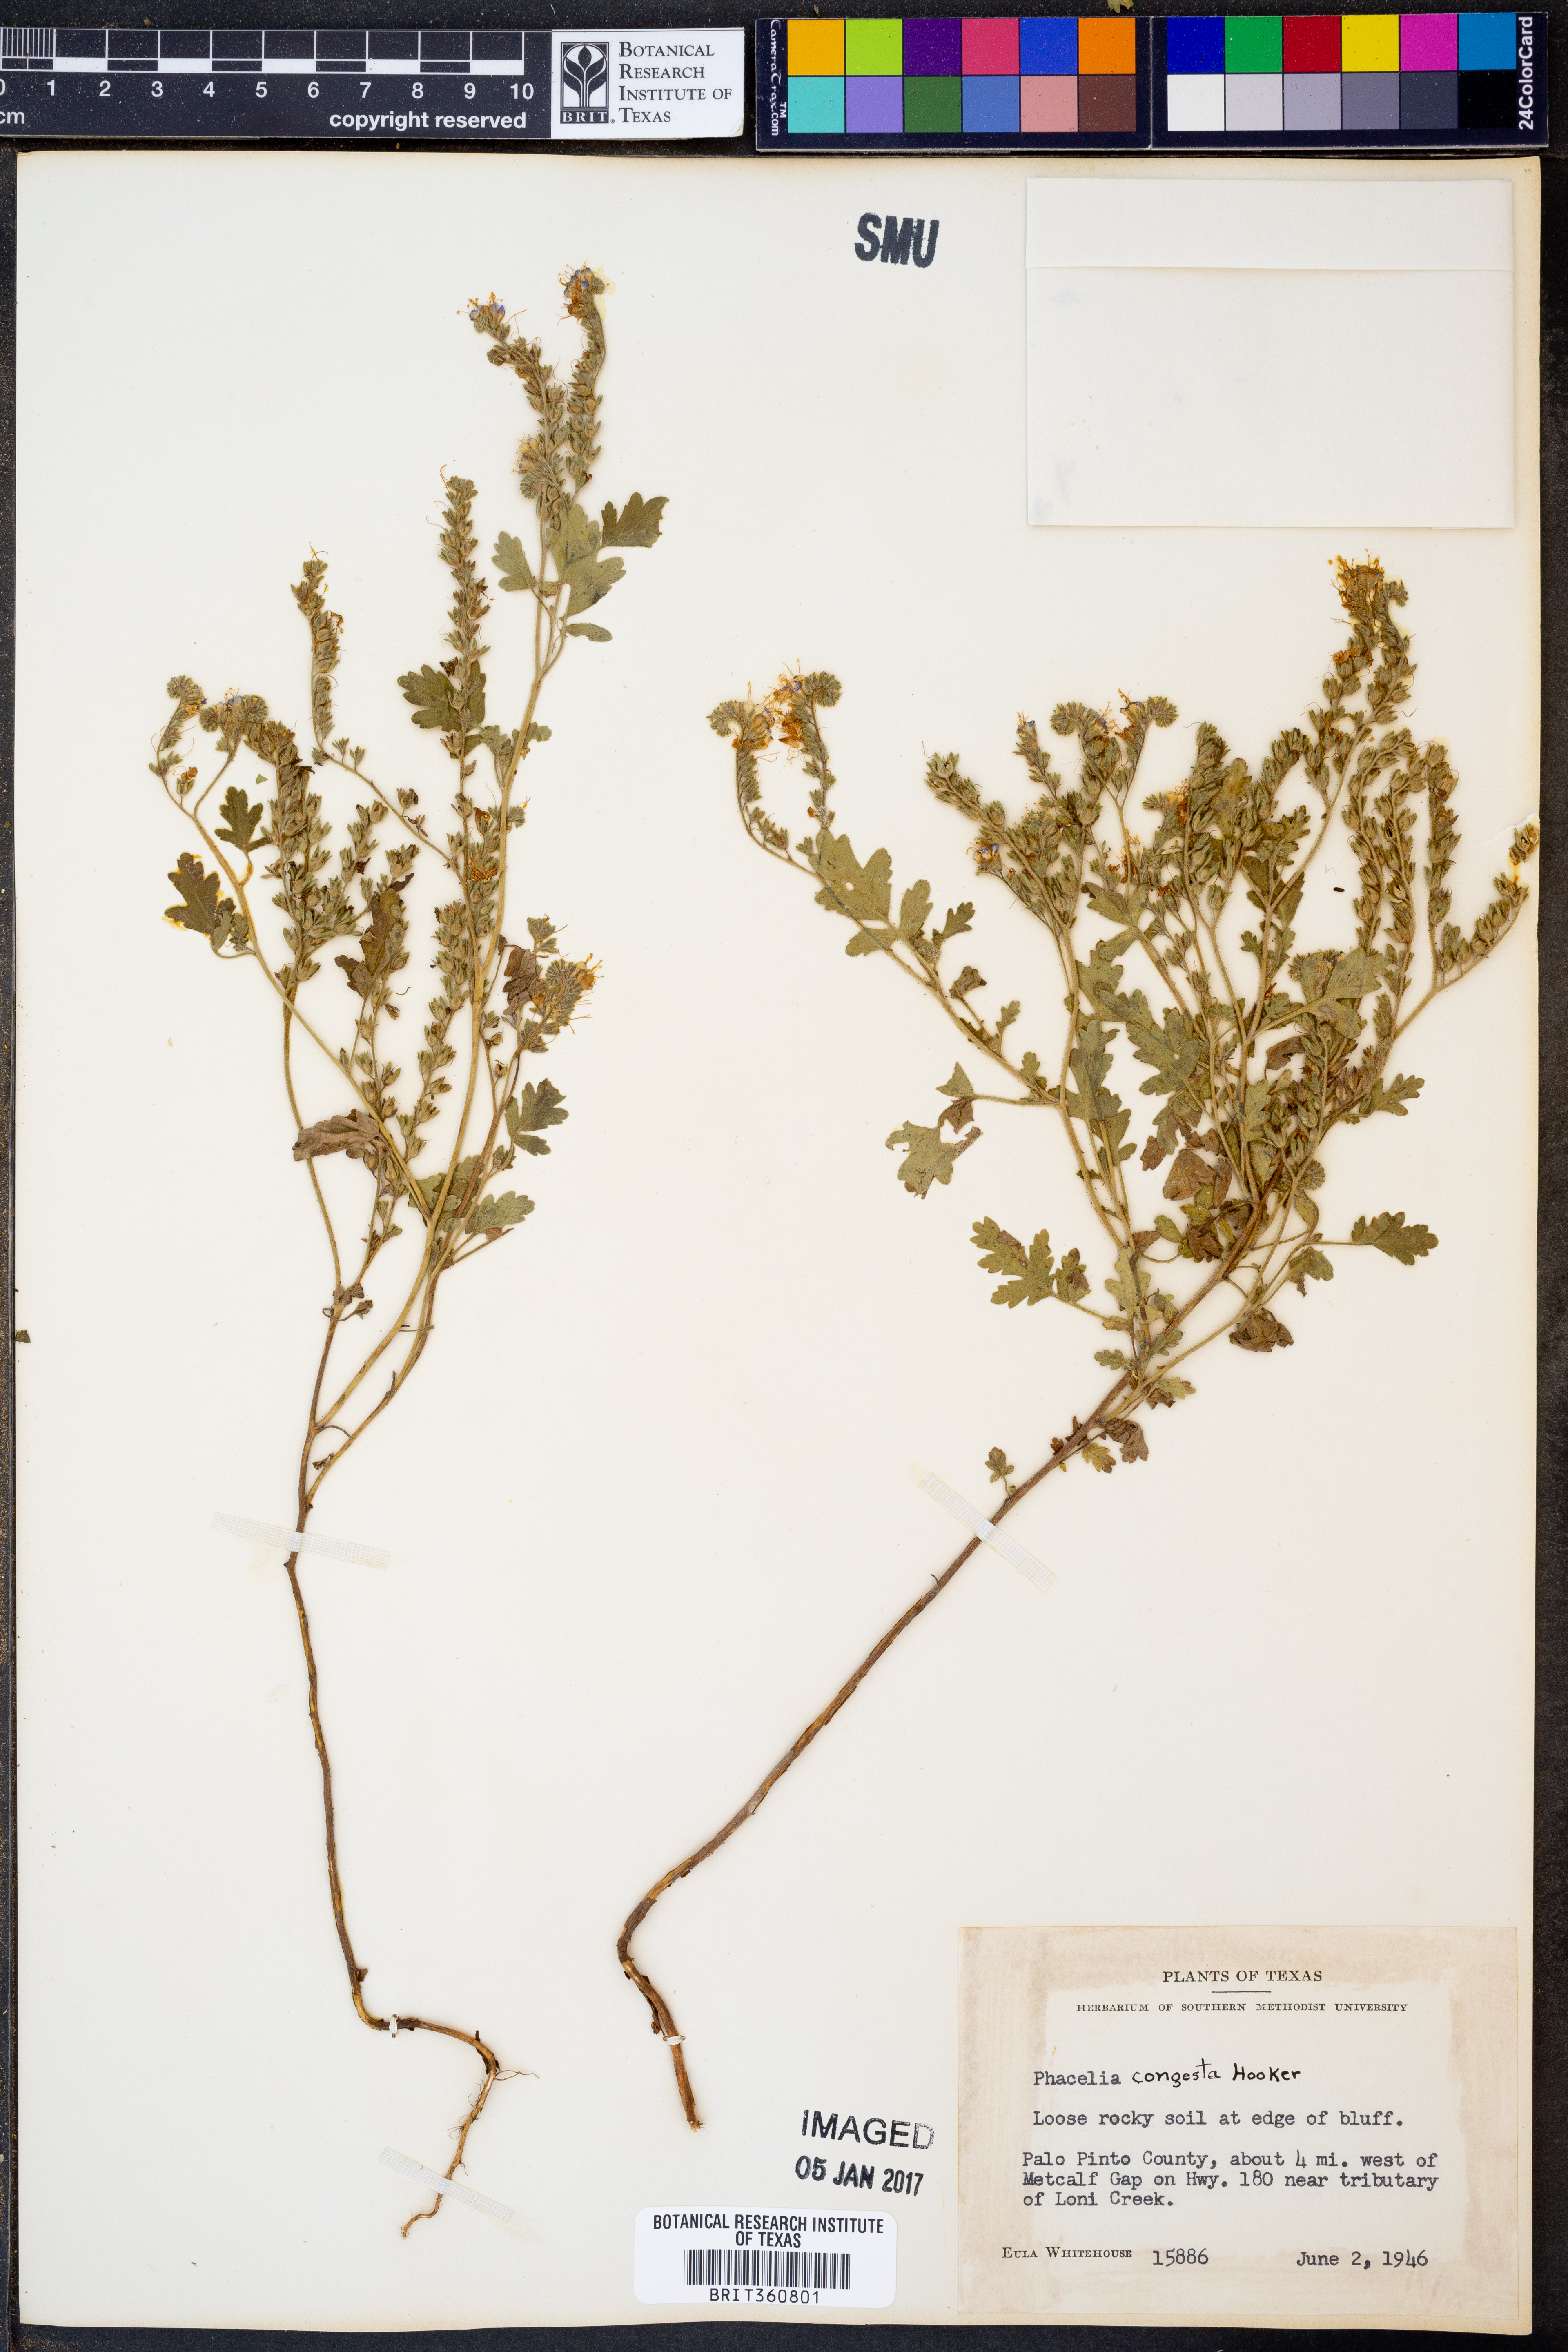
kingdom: Plantae
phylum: Tracheophyta
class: Magnoliopsida
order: Boraginales
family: Hydrophyllaceae
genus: Phacelia
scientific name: Phacelia congesta
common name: Blue curls
